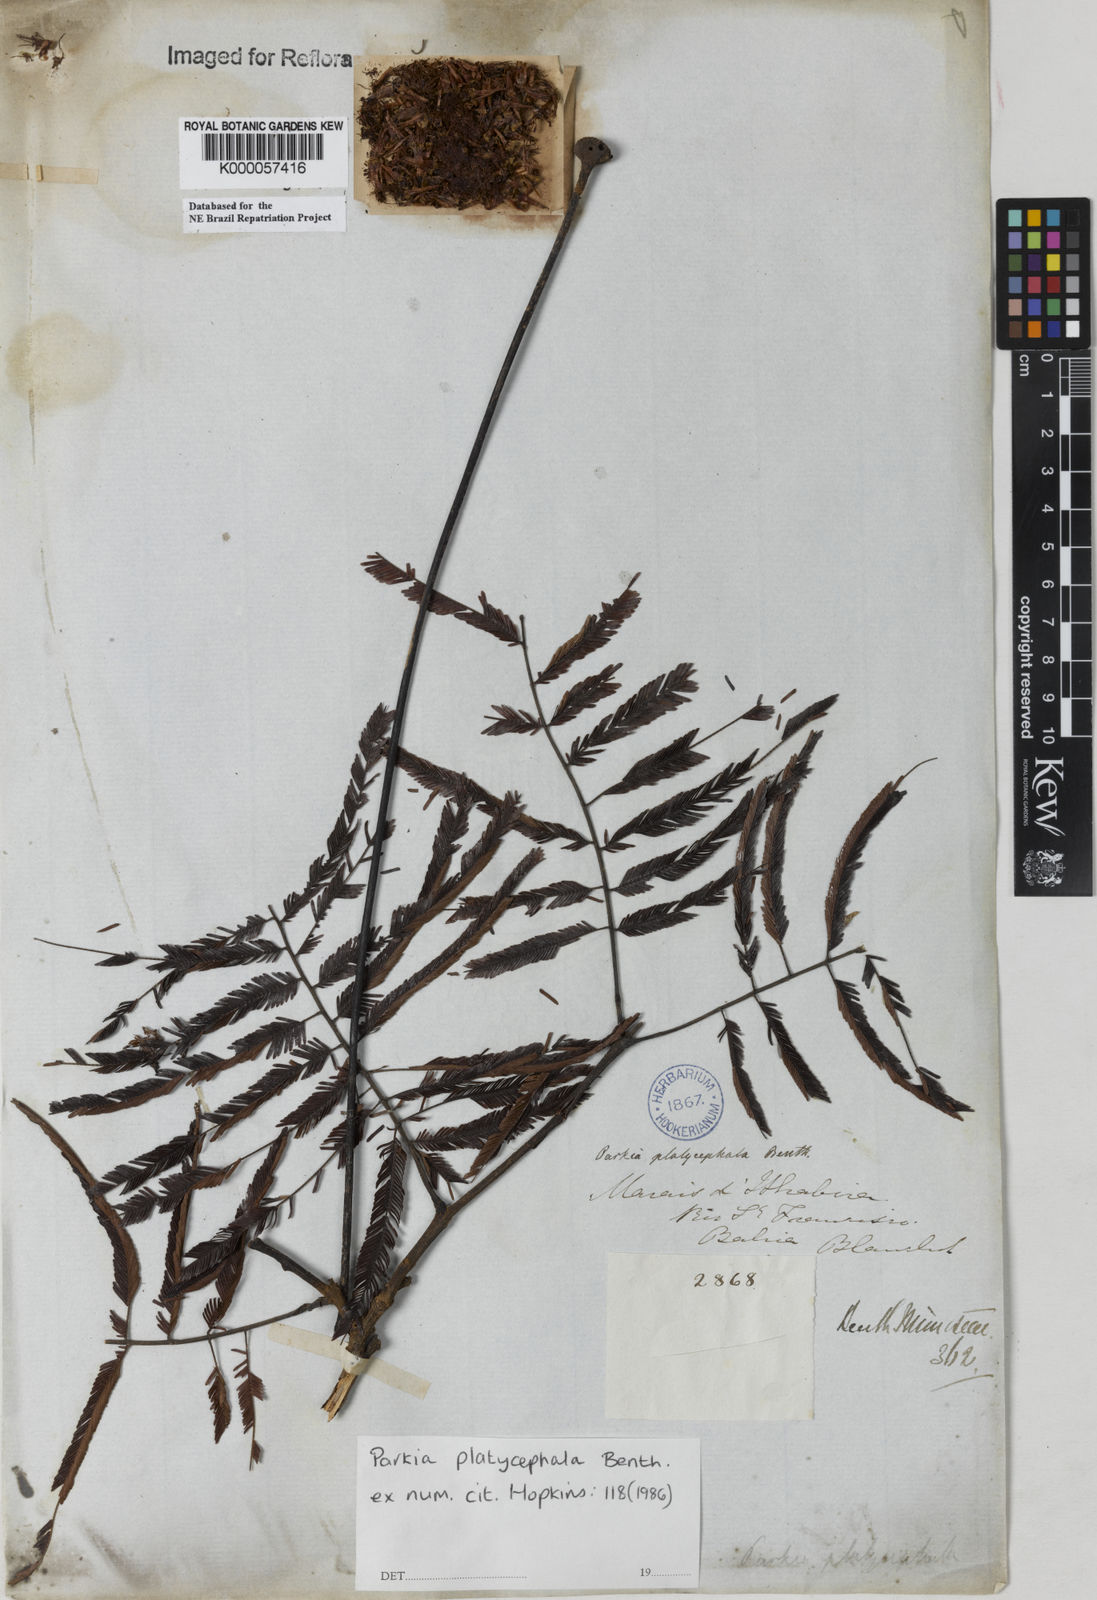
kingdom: Plantae
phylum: Tracheophyta
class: Magnoliopsida
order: Fabales
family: Fabaceae
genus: Parkia
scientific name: Parkia platycephala
